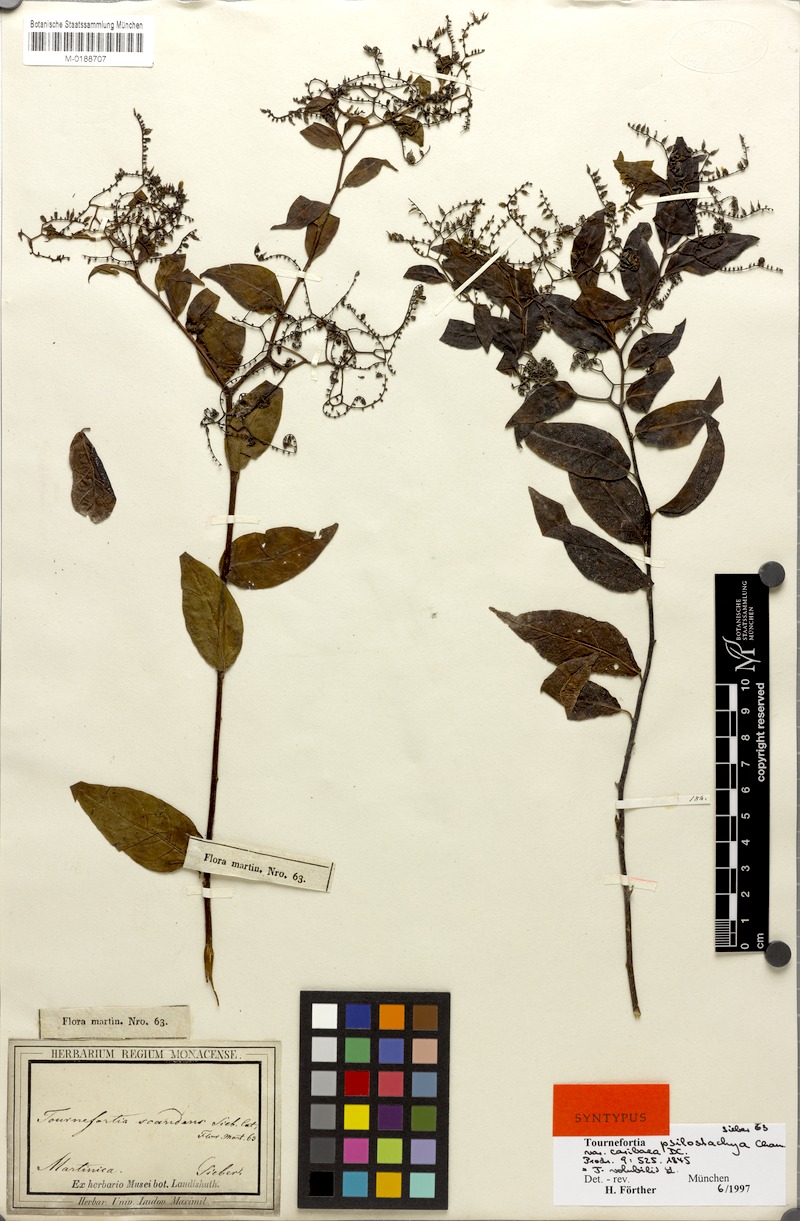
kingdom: Plantae
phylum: Tracheophyta
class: Magnoliopsida
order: Boraginales
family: Heliotropiaceae
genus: Myriopus
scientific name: Myriopus volubilis
